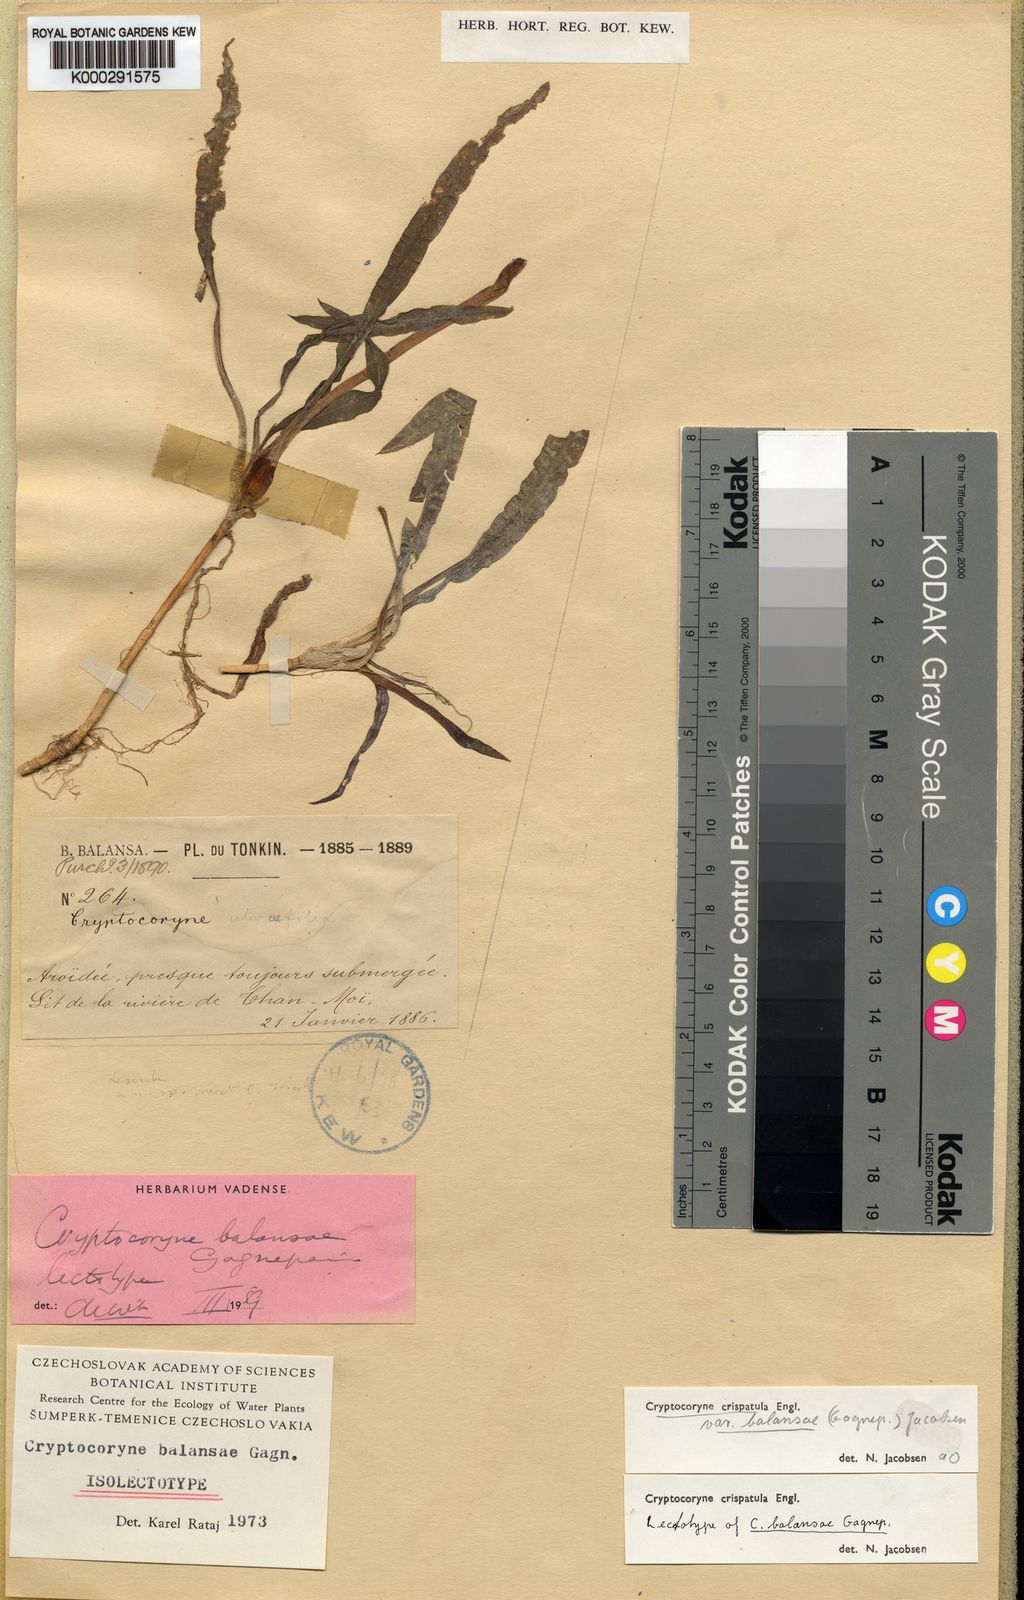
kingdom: Plantae
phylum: Tracheophyta
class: Liliopsida
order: Alismatales
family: Araceae
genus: Cryptocoryne
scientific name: Cryptocoryne crispatula
